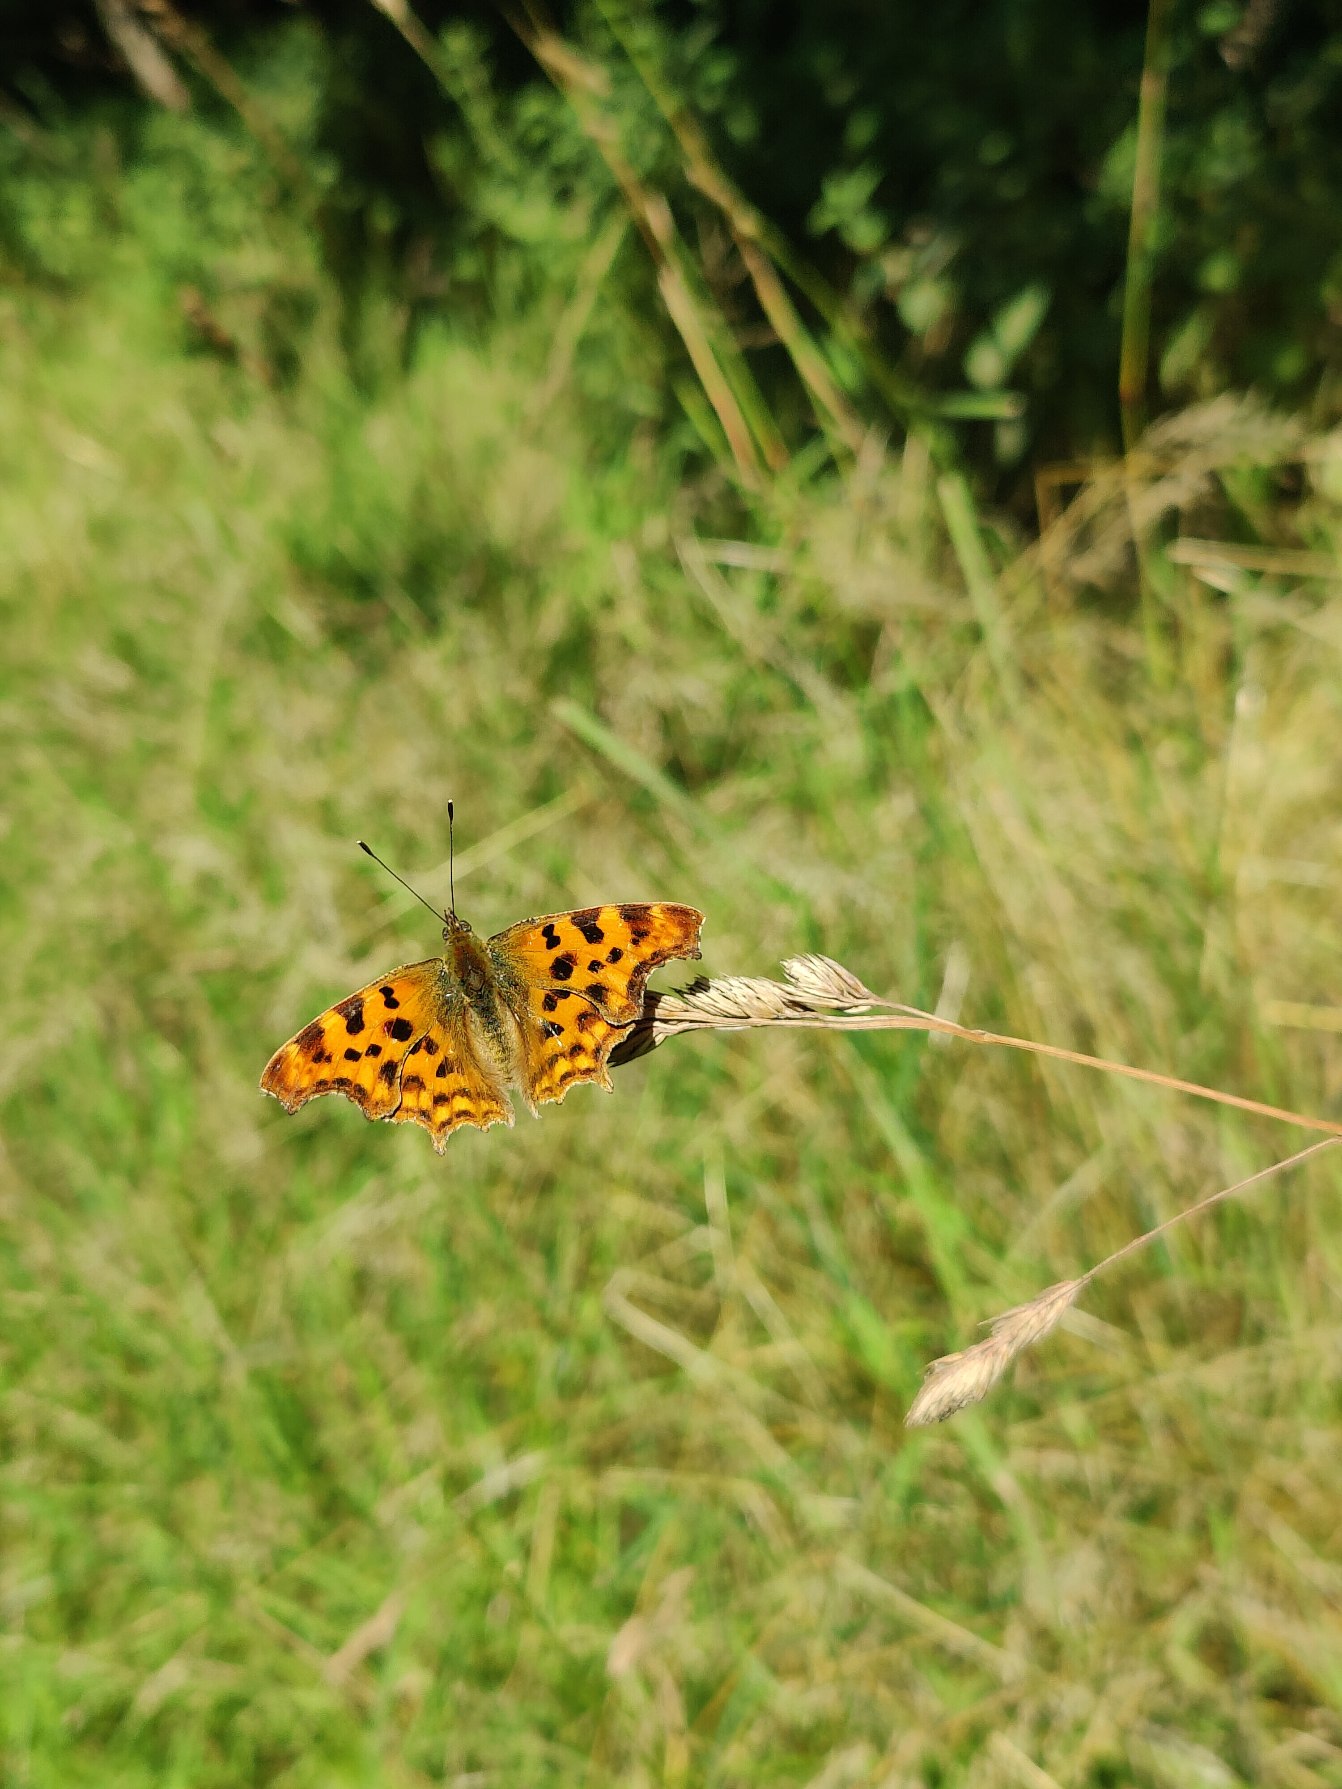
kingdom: Animalia
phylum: Arthropoda
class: Insecta
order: Lepidoptera
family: Nymphalidae
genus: Polygonia
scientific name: Polygonia c-album
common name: Det hvide C
